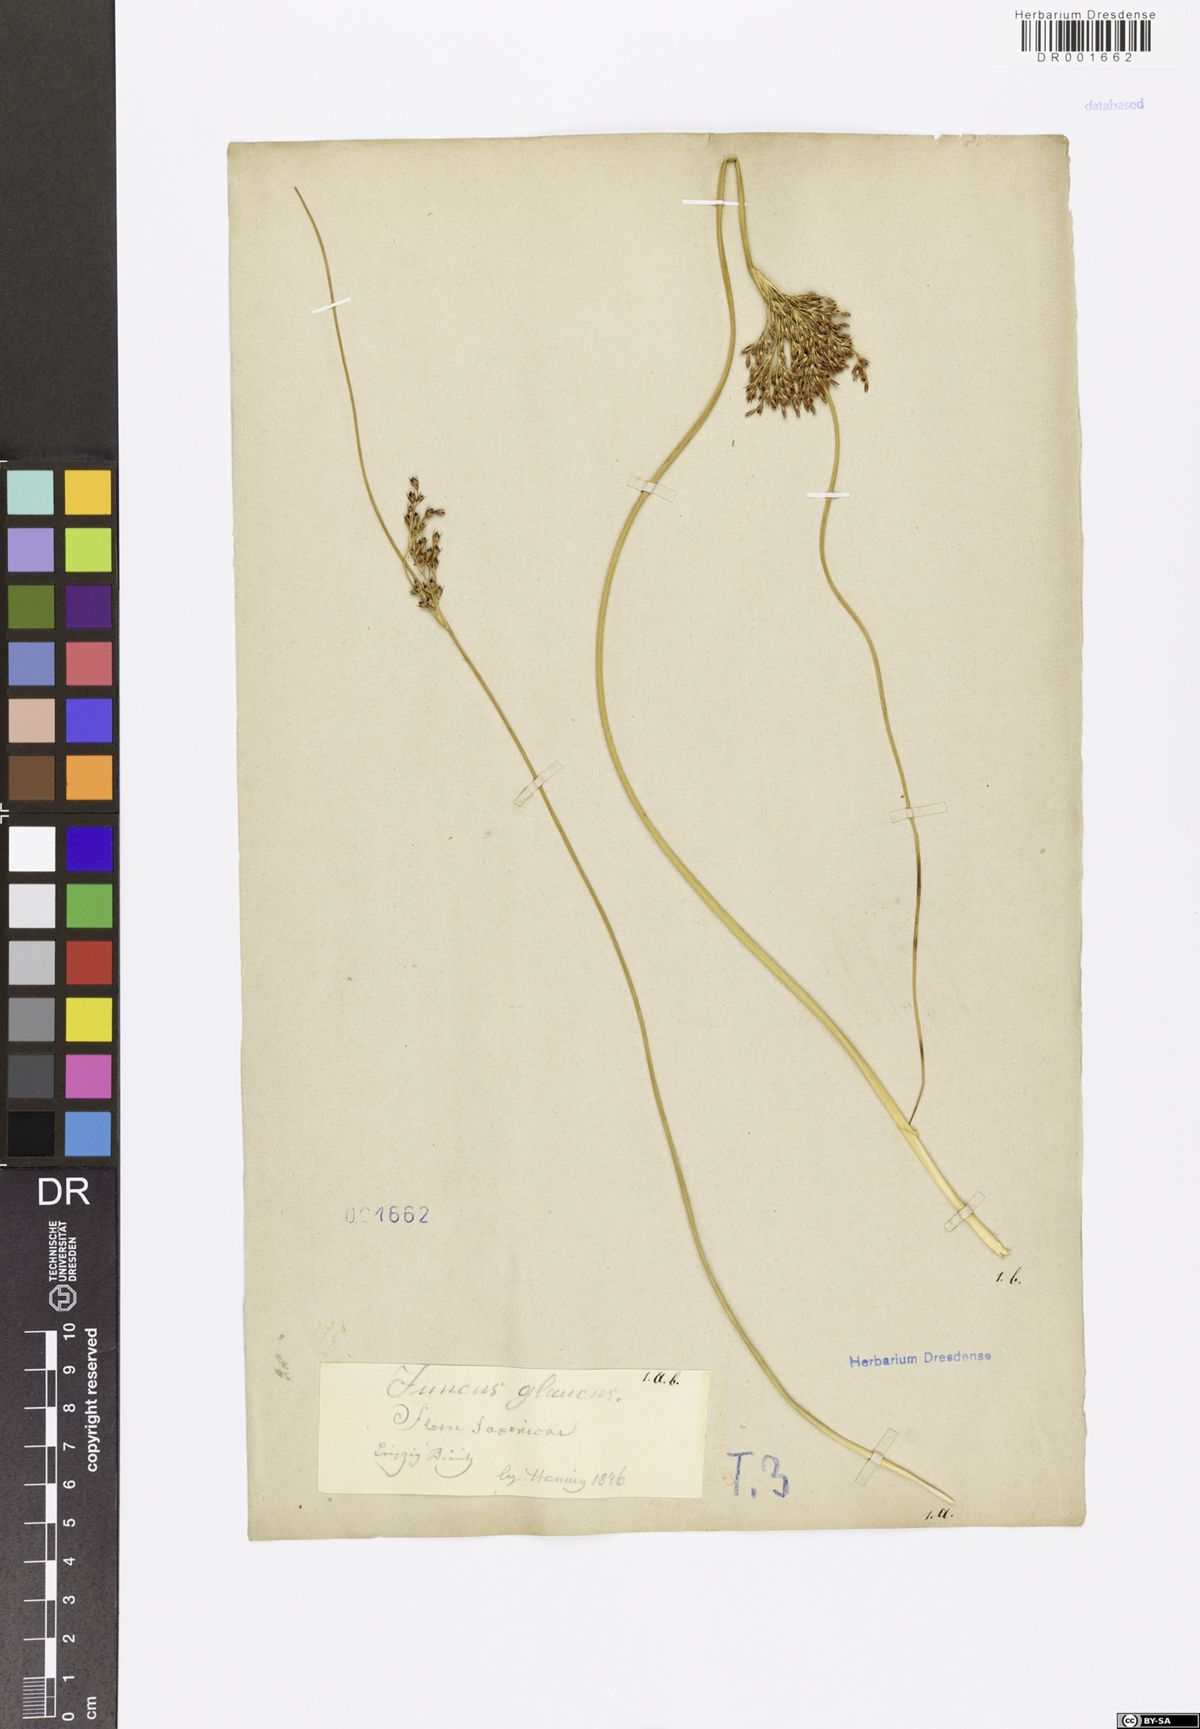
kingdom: Plantae
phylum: Tracheophyta
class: Liliopsida
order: Poales
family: Juncaceae
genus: Juncus
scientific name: Juncus inflexus
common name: Hard rush
